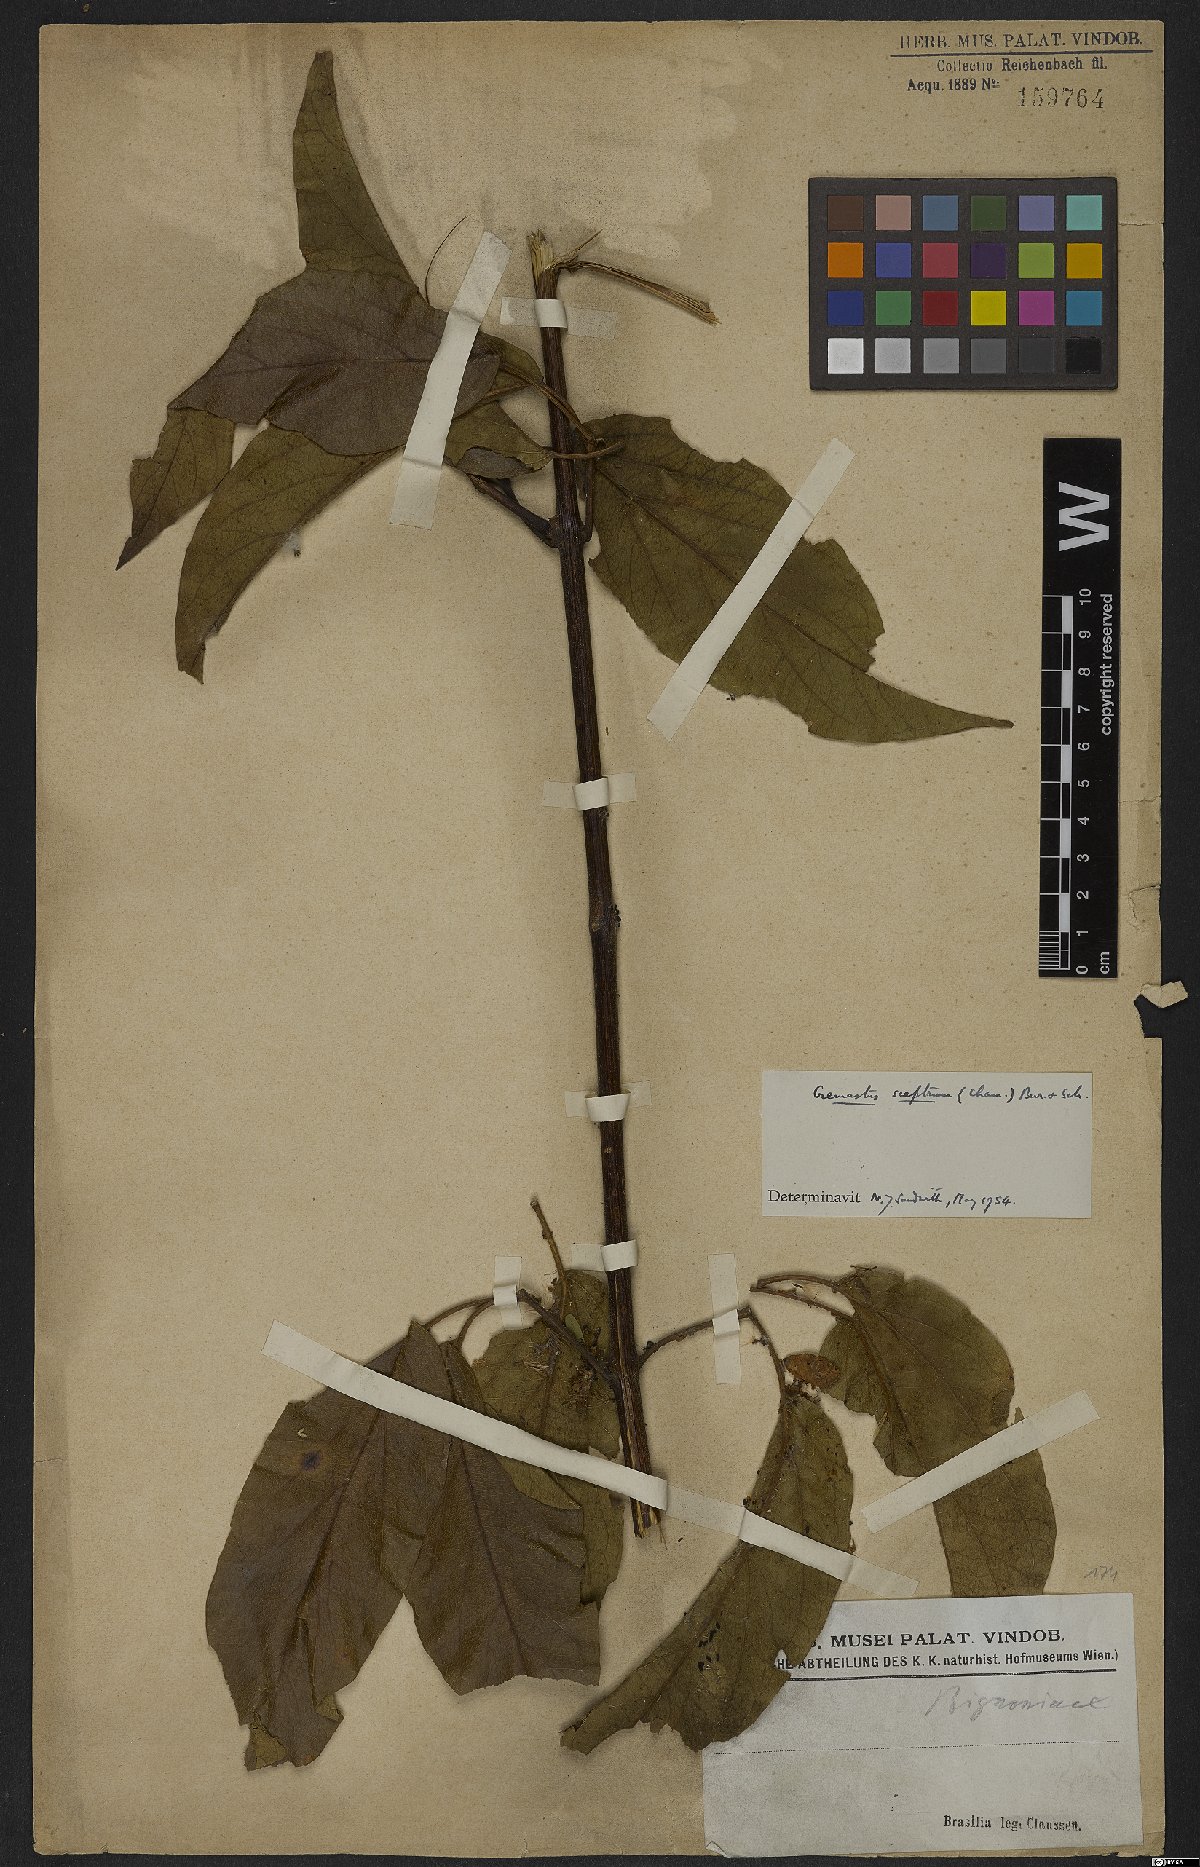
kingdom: Plantae
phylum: Tracheophyta
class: Magnoliopsida
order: Lamiales
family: Bignoniaceae
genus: Cuspidaria
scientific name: Cuspidaria sceptrum
